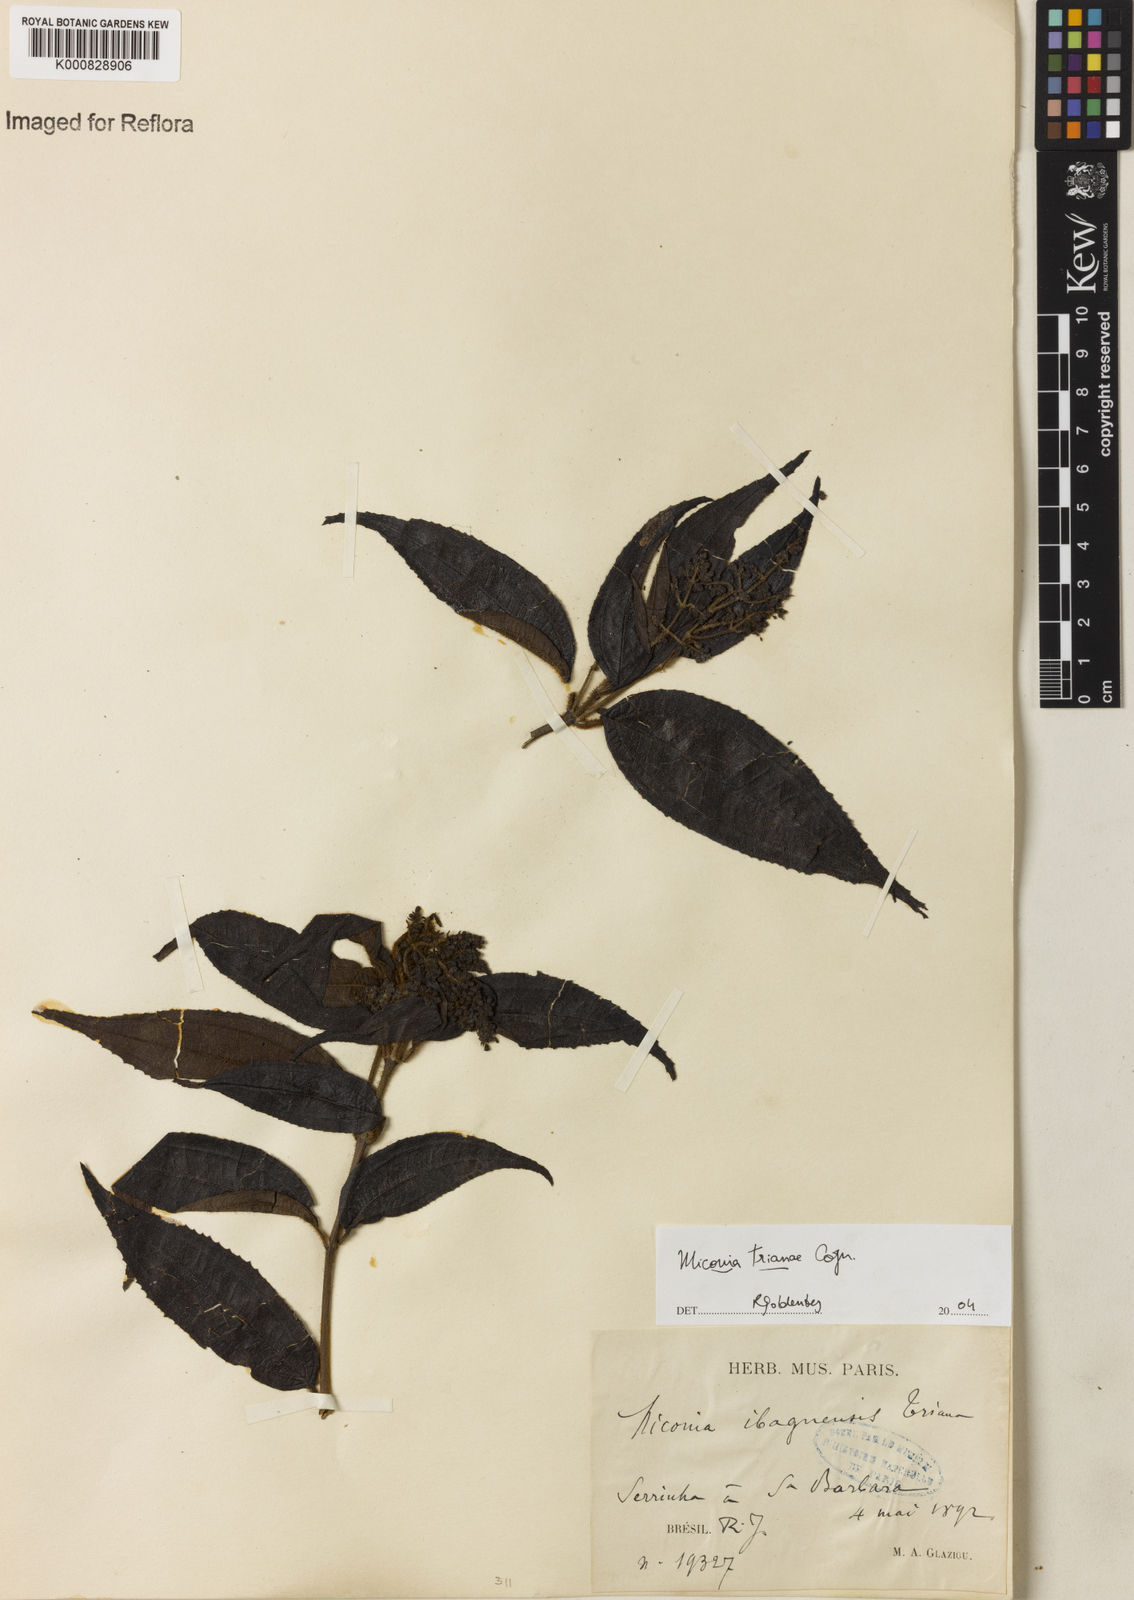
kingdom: Plantae
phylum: Tracheophyta
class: Magnoliopsida
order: Myrtales
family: Melastomataceae
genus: Miconia
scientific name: Miconia trianae
